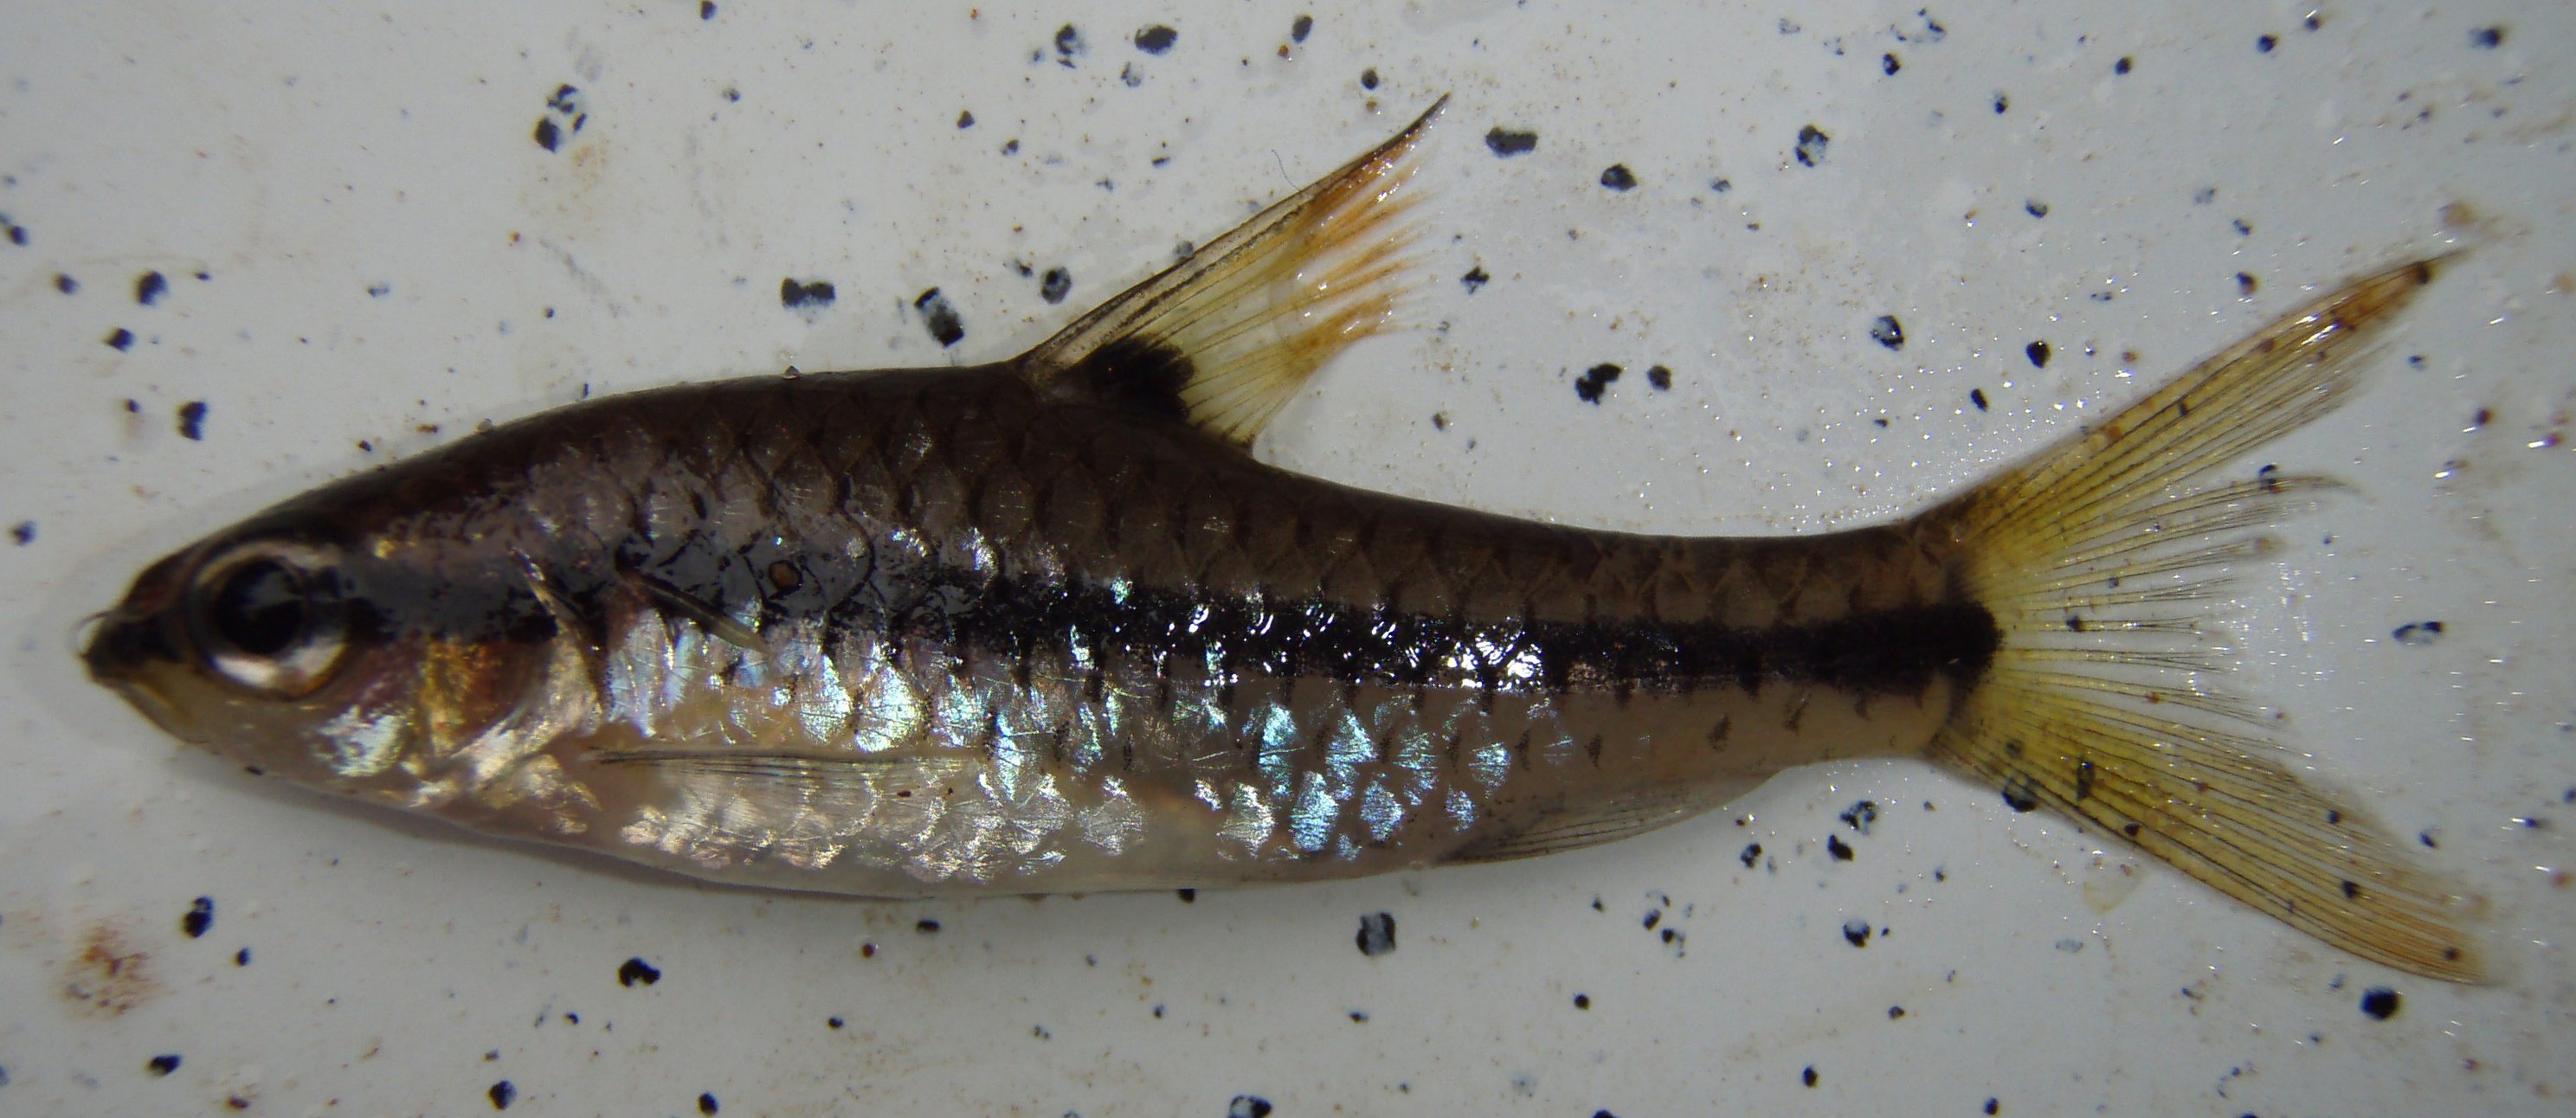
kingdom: Animalia
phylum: Chordata
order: Cypriniformes
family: Cyprinidae
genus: Enteromius
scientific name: Enteromius miolepis
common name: Zigzag barb
